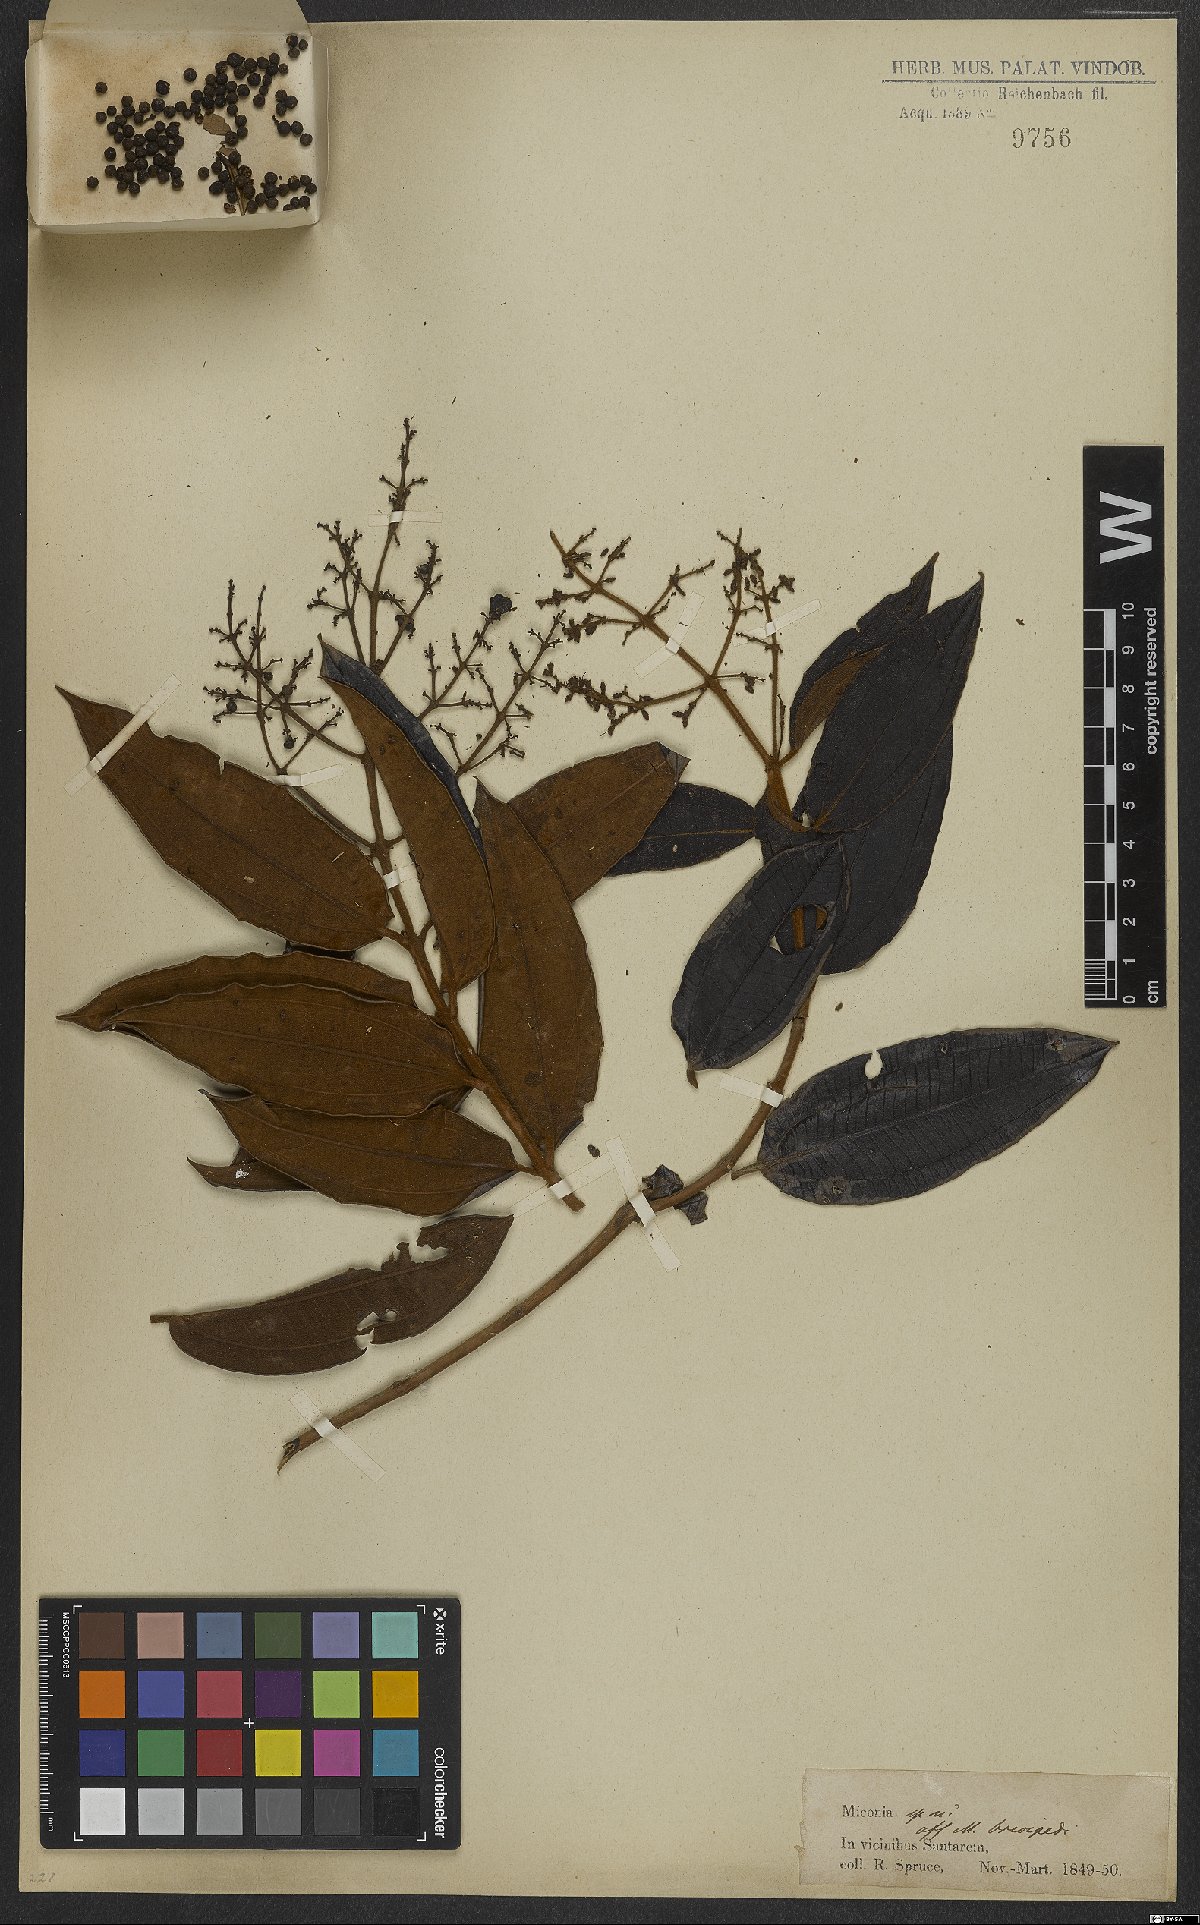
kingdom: Plantae
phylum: Tracheophyta
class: Magnoliopsida
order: Myrtales
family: Melastomataceae
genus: Miconia
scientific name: Miconia brevipes
